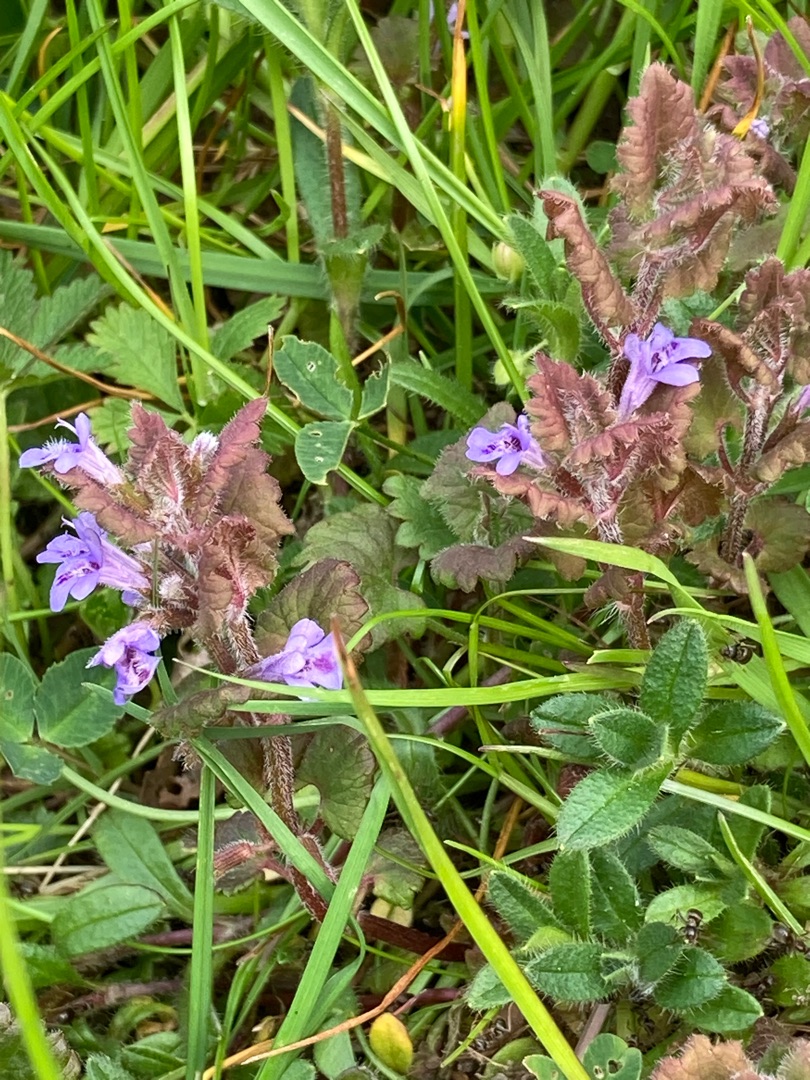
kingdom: Plantae
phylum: Tracheophyta
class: Magnoliopsida
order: Lamiales
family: Lamiaceae
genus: Glechoma
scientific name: Glechoma hederacea
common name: Korsknap
